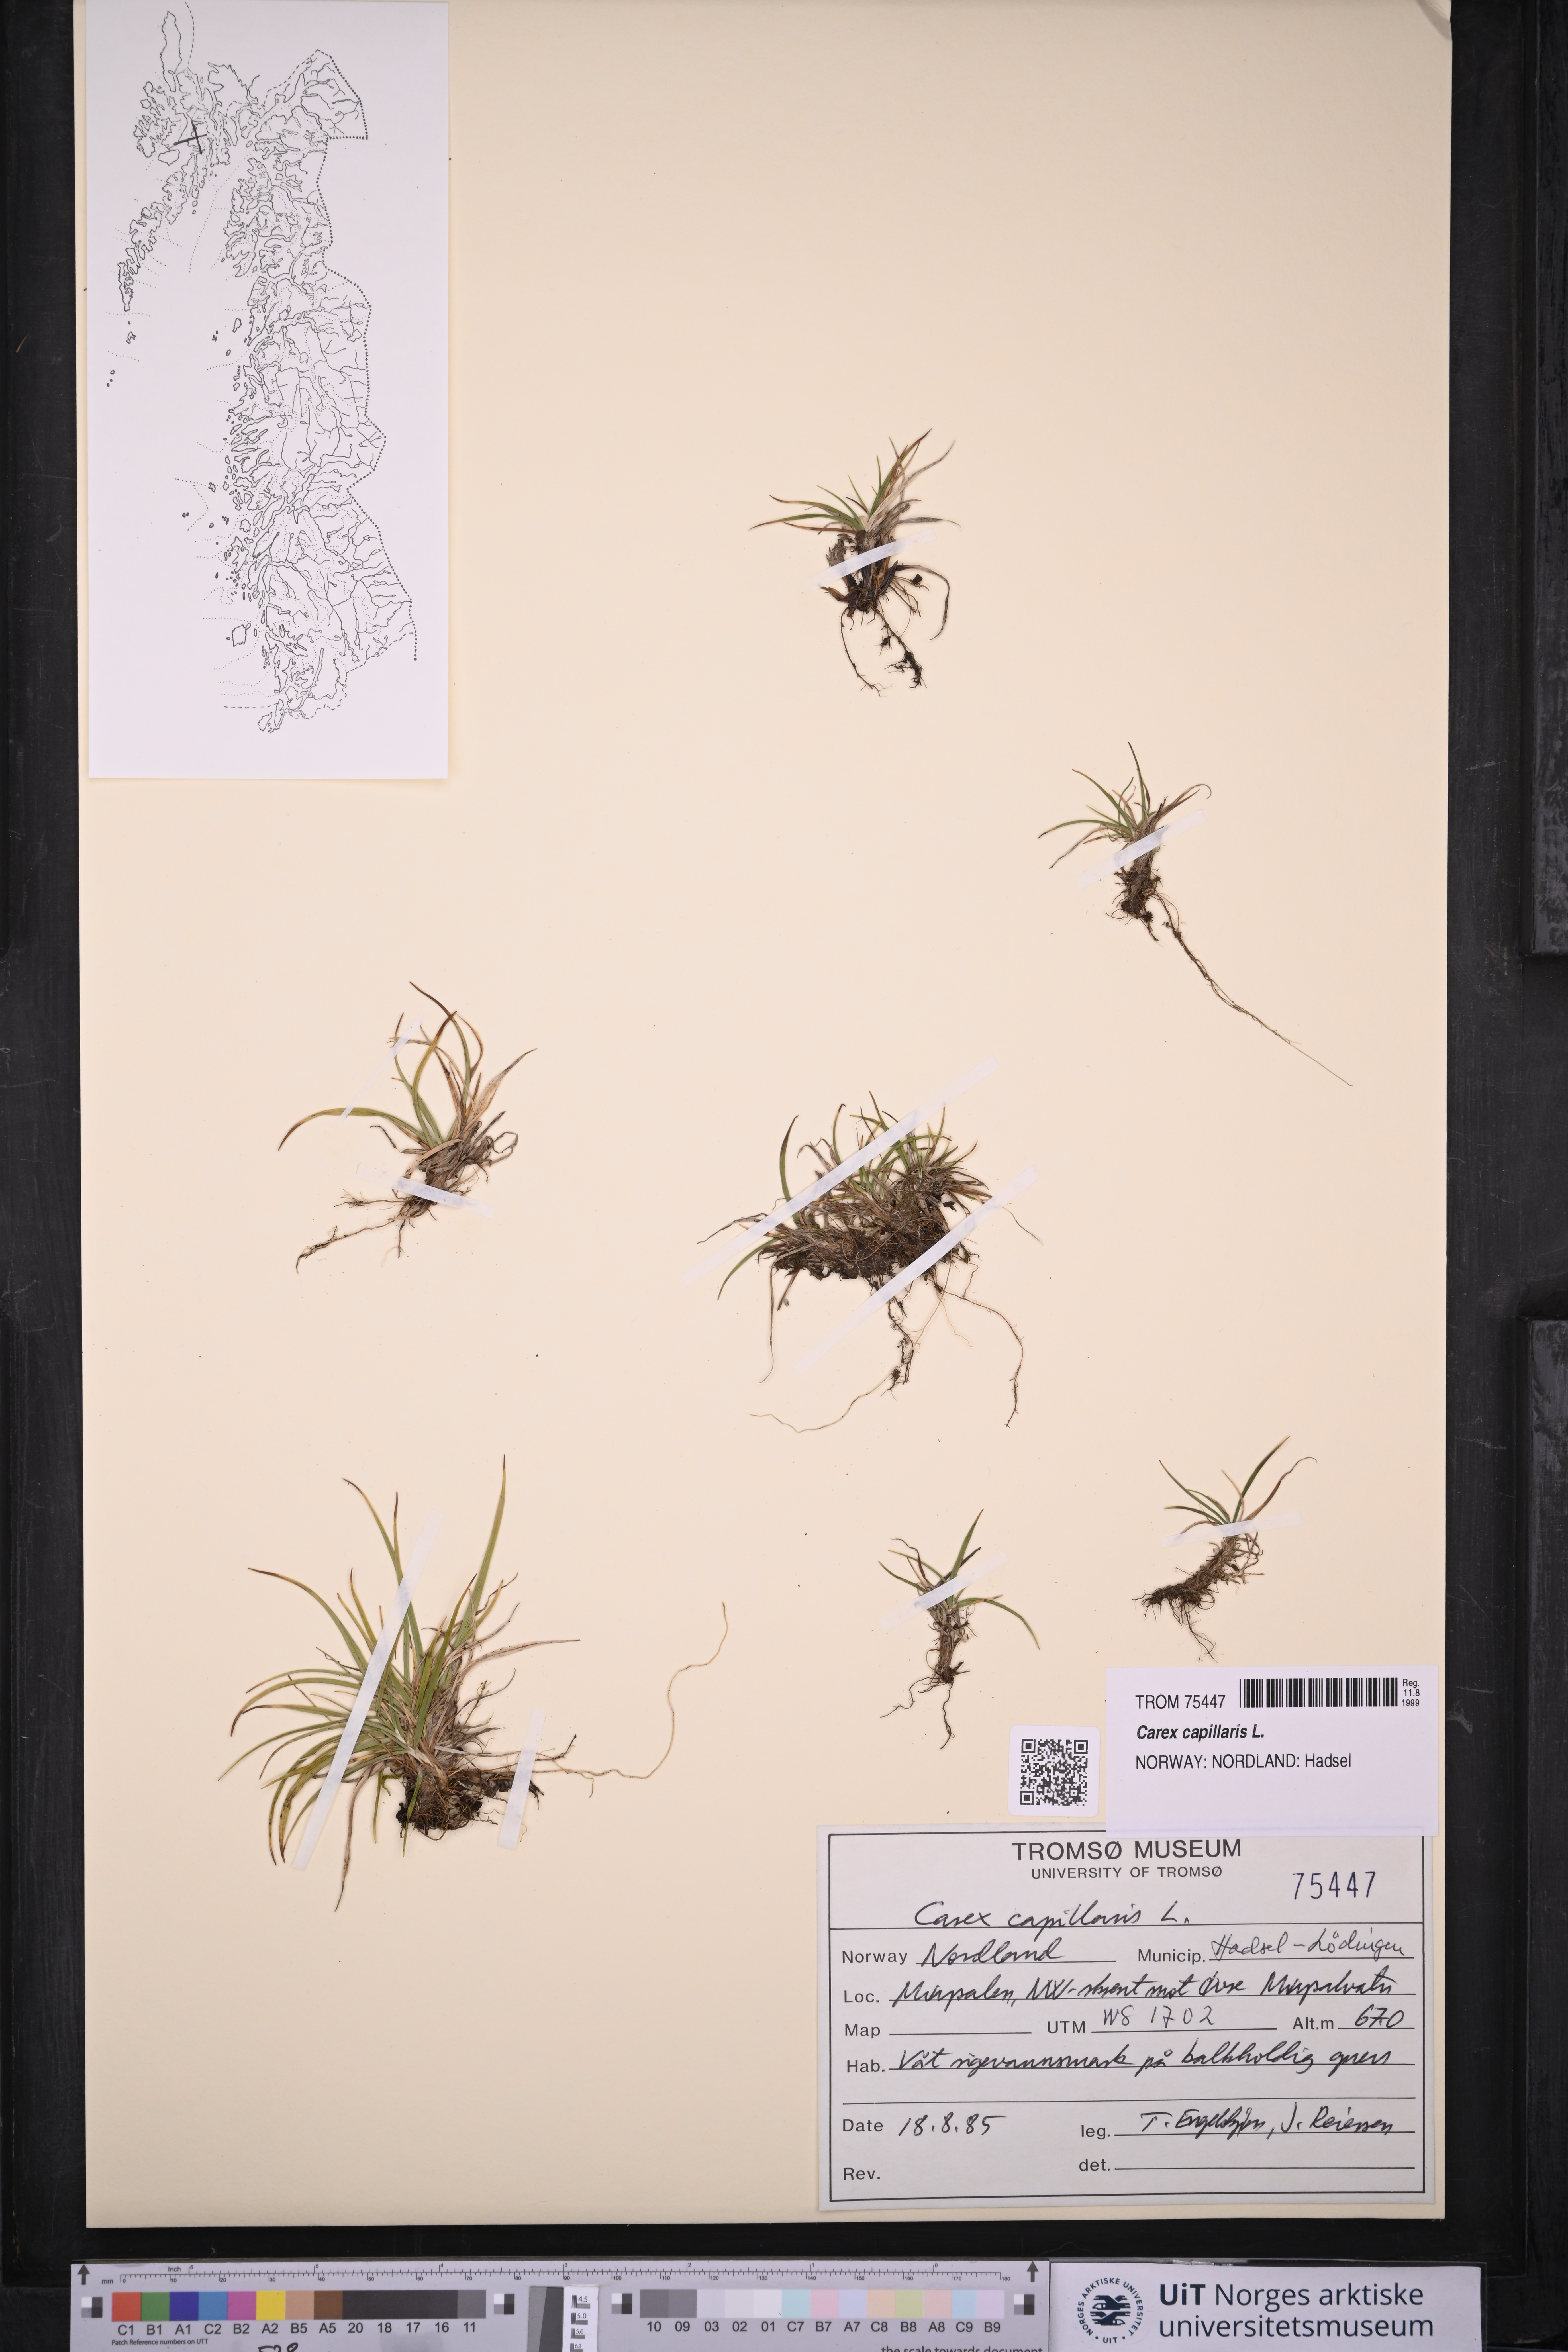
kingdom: Plantae
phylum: Tracheophyta
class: Liliopsida
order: Poales
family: Cyperaceae
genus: Carex
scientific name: Carex capillaris
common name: Hair sedge
